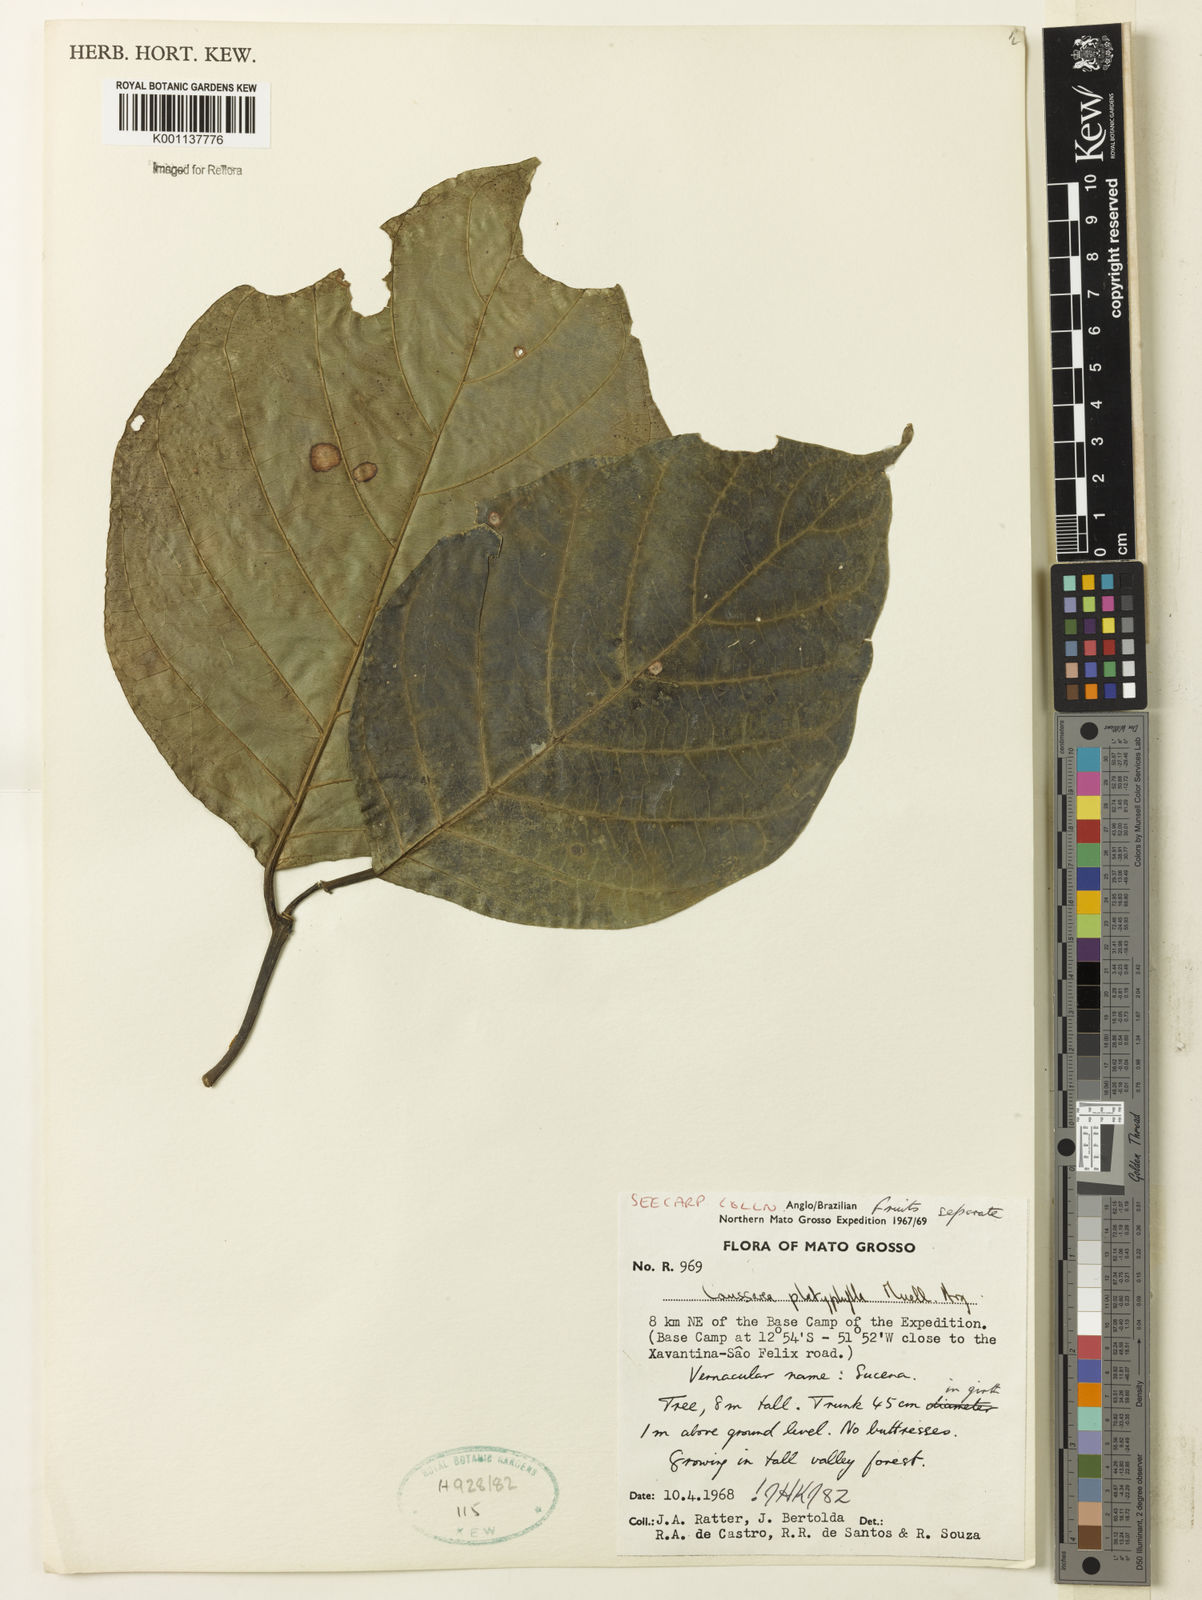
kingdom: Plantae
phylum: Tracheophyta
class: Magnoliopsida
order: Gentianales
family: Rubiaceae
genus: Coussarea
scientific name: Coussarea
